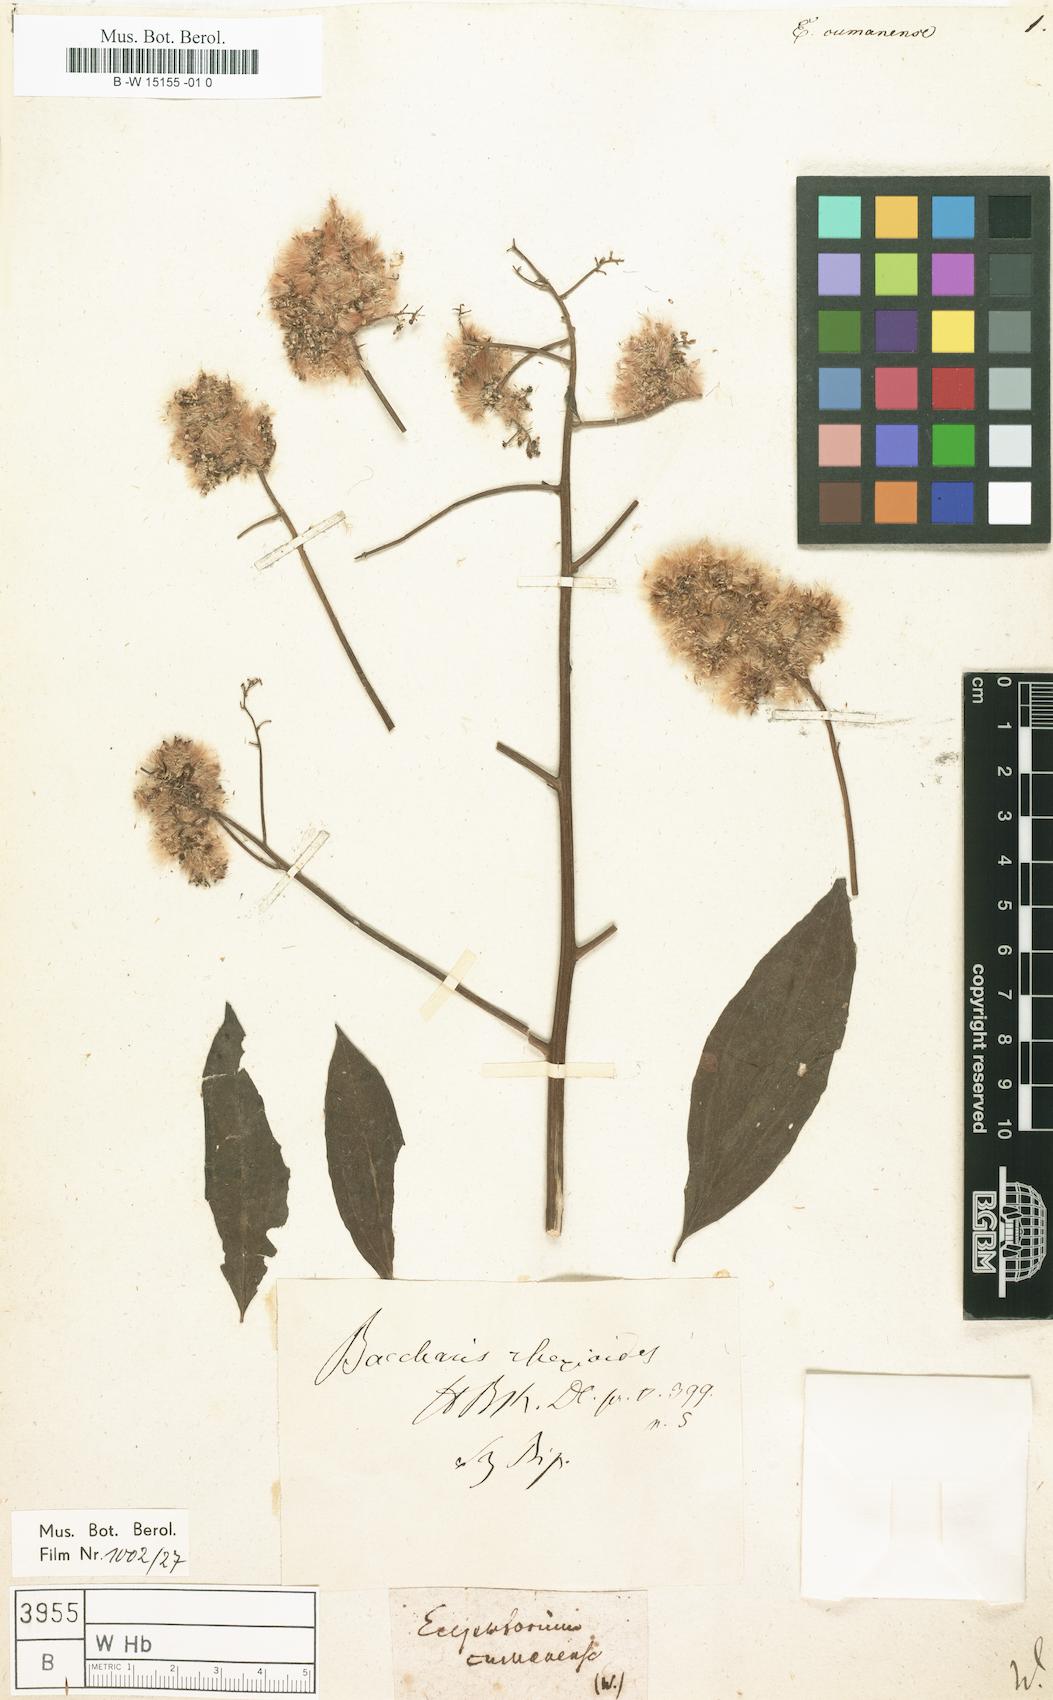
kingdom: Plantae
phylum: Tracheophyta
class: Magnoliopsida
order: Asterales
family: Asteraceae
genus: Ayapana
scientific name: Ayapana amygdalina
